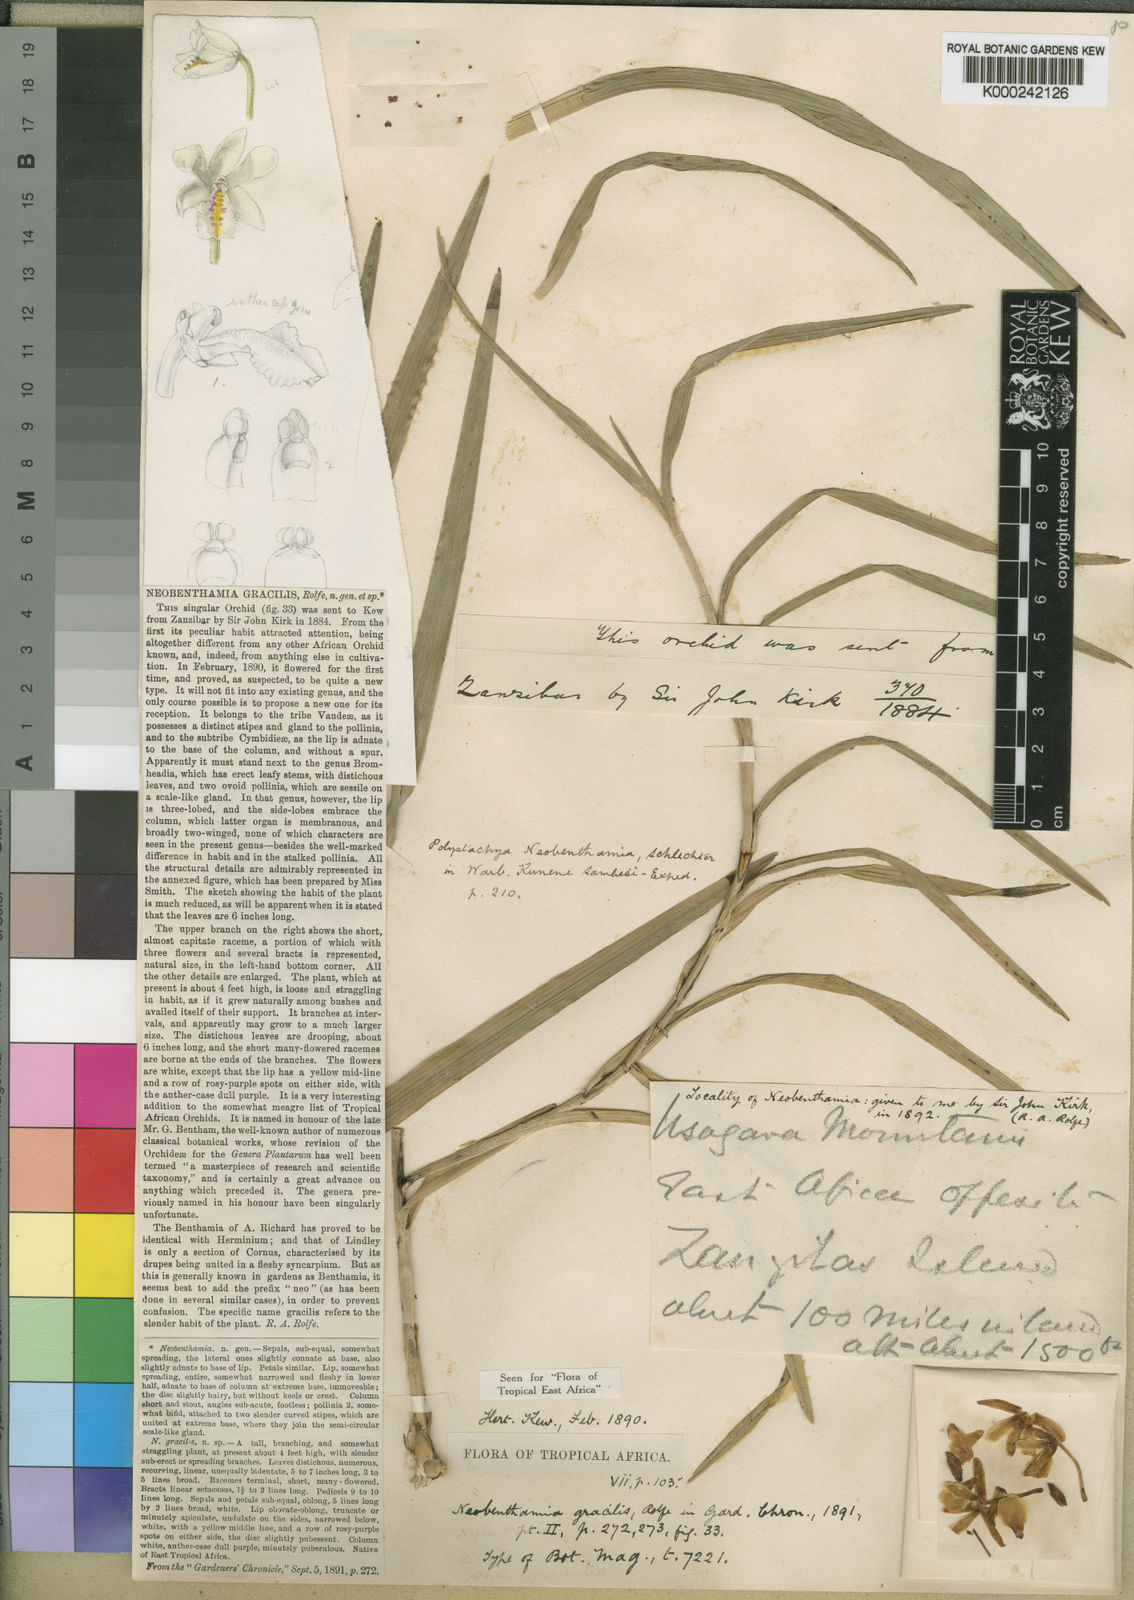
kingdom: Plantae
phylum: Tracheophyta
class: Liliopsida
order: Asparagales
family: Orchidaceae
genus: Polystachya
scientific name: Polystachya neobenthamia
